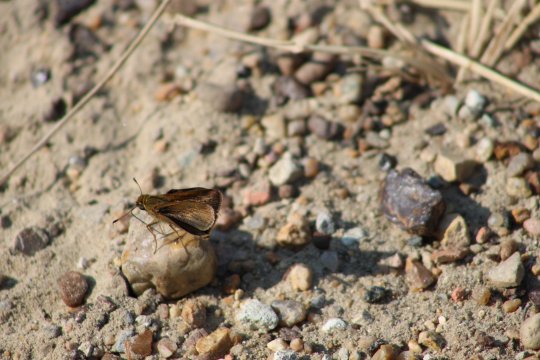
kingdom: Animalia
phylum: Arthropoda
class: Insecta
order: Lepidoptera
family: Hesperiidae
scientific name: Hesperiidae
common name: Skippers
